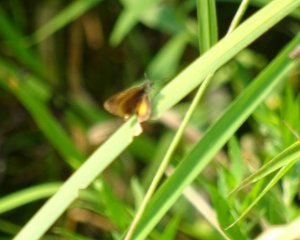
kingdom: Animalia
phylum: Arthropoda
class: Insecta
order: Lepidoptera
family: Hesperiidae
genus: Ancyloxypha
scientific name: Ancyloxypha numitor
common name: Least Skipper
